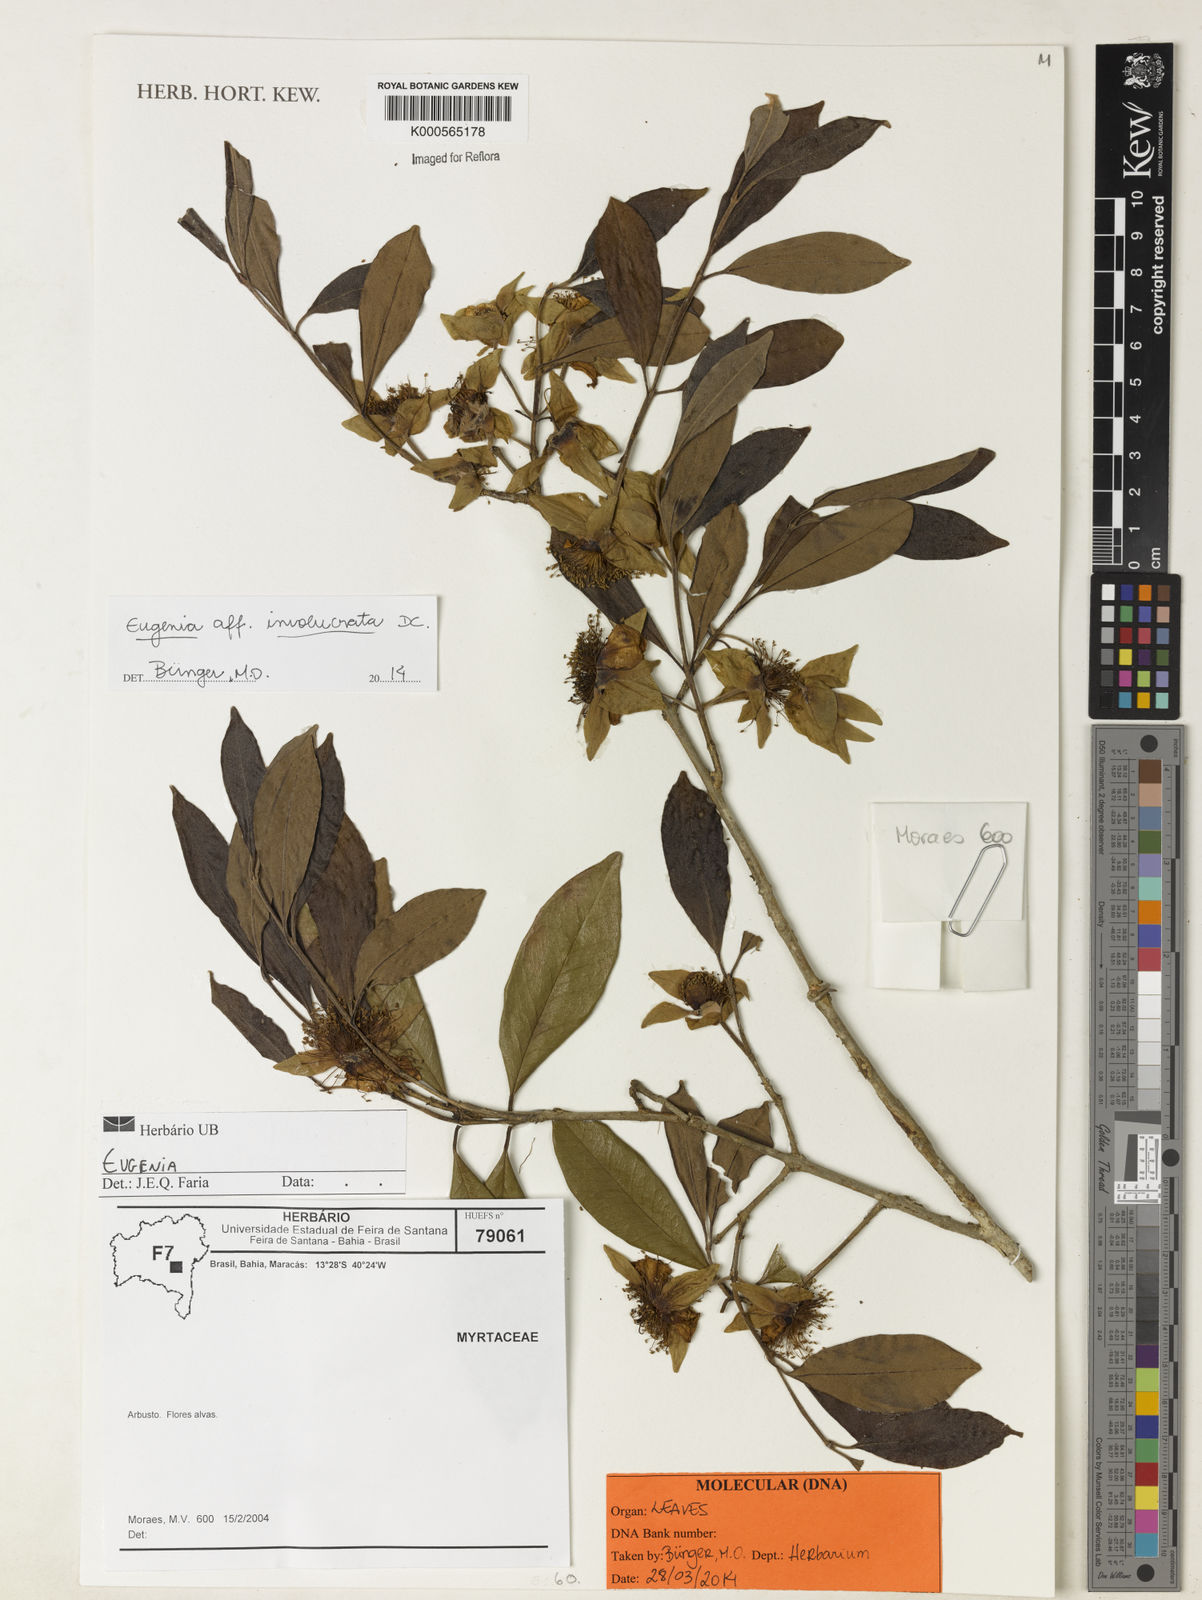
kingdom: Plantae
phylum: Tracheophyta
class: Magnoliopsida
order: Myrtales
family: Myrtaceae
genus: Eugenia
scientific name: Eugenia involucrata
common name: Cherry-of-the-rio grande
